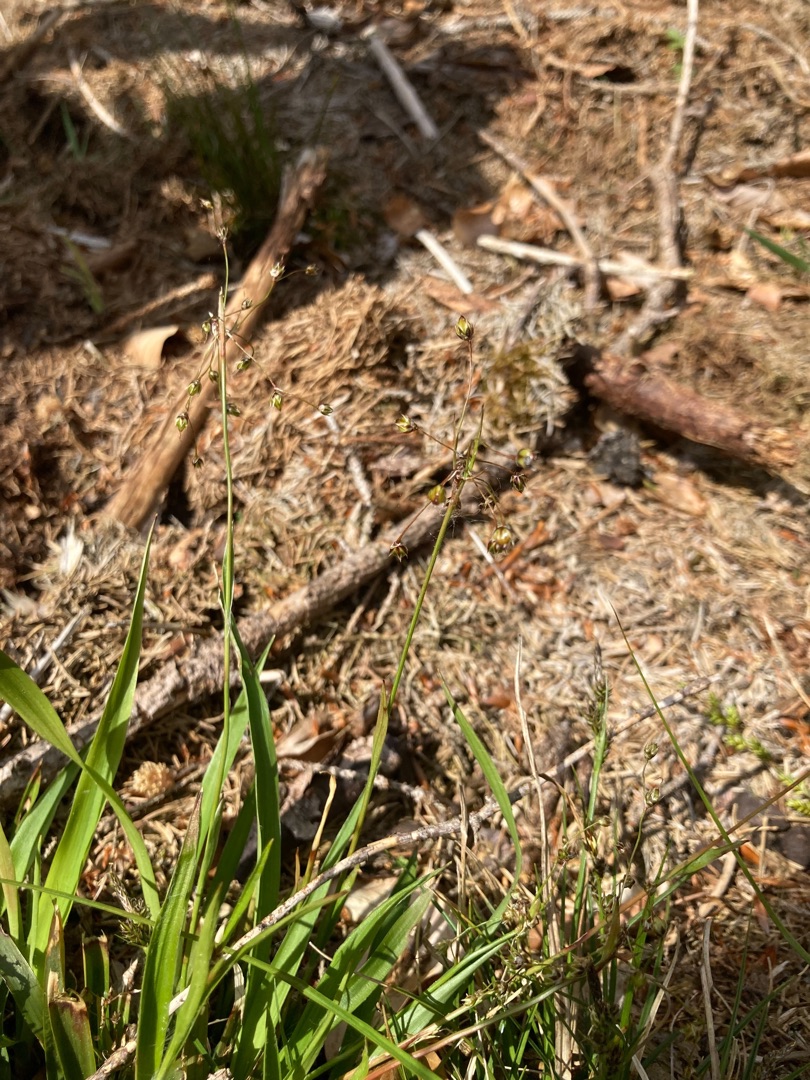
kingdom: Plantae
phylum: Tracheophyta
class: Liliopsida
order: Poales
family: Juncaceae
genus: Luzula
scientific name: Luzula pilosa
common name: Håret frytle
